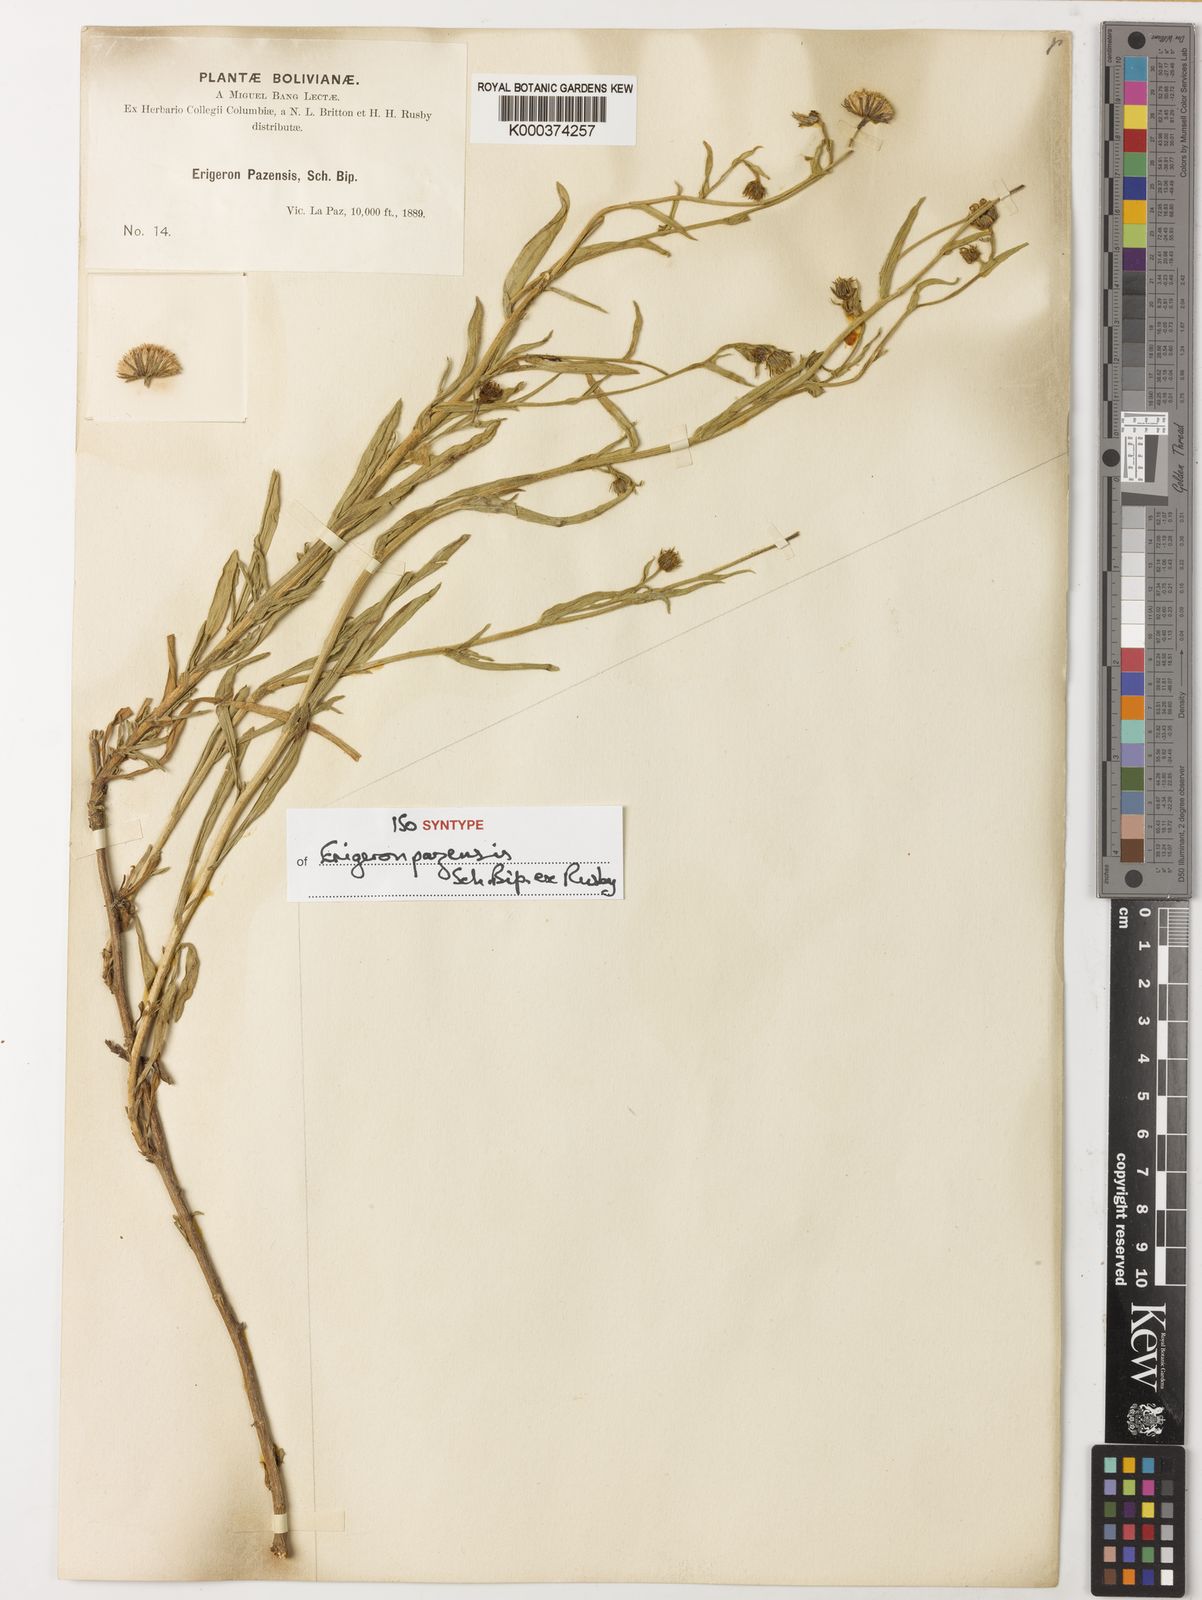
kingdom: Plantae
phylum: Tracheophyta
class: Magnoliopsida
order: Asterales
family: Asteraceae
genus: Erigeron
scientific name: Erigeron
